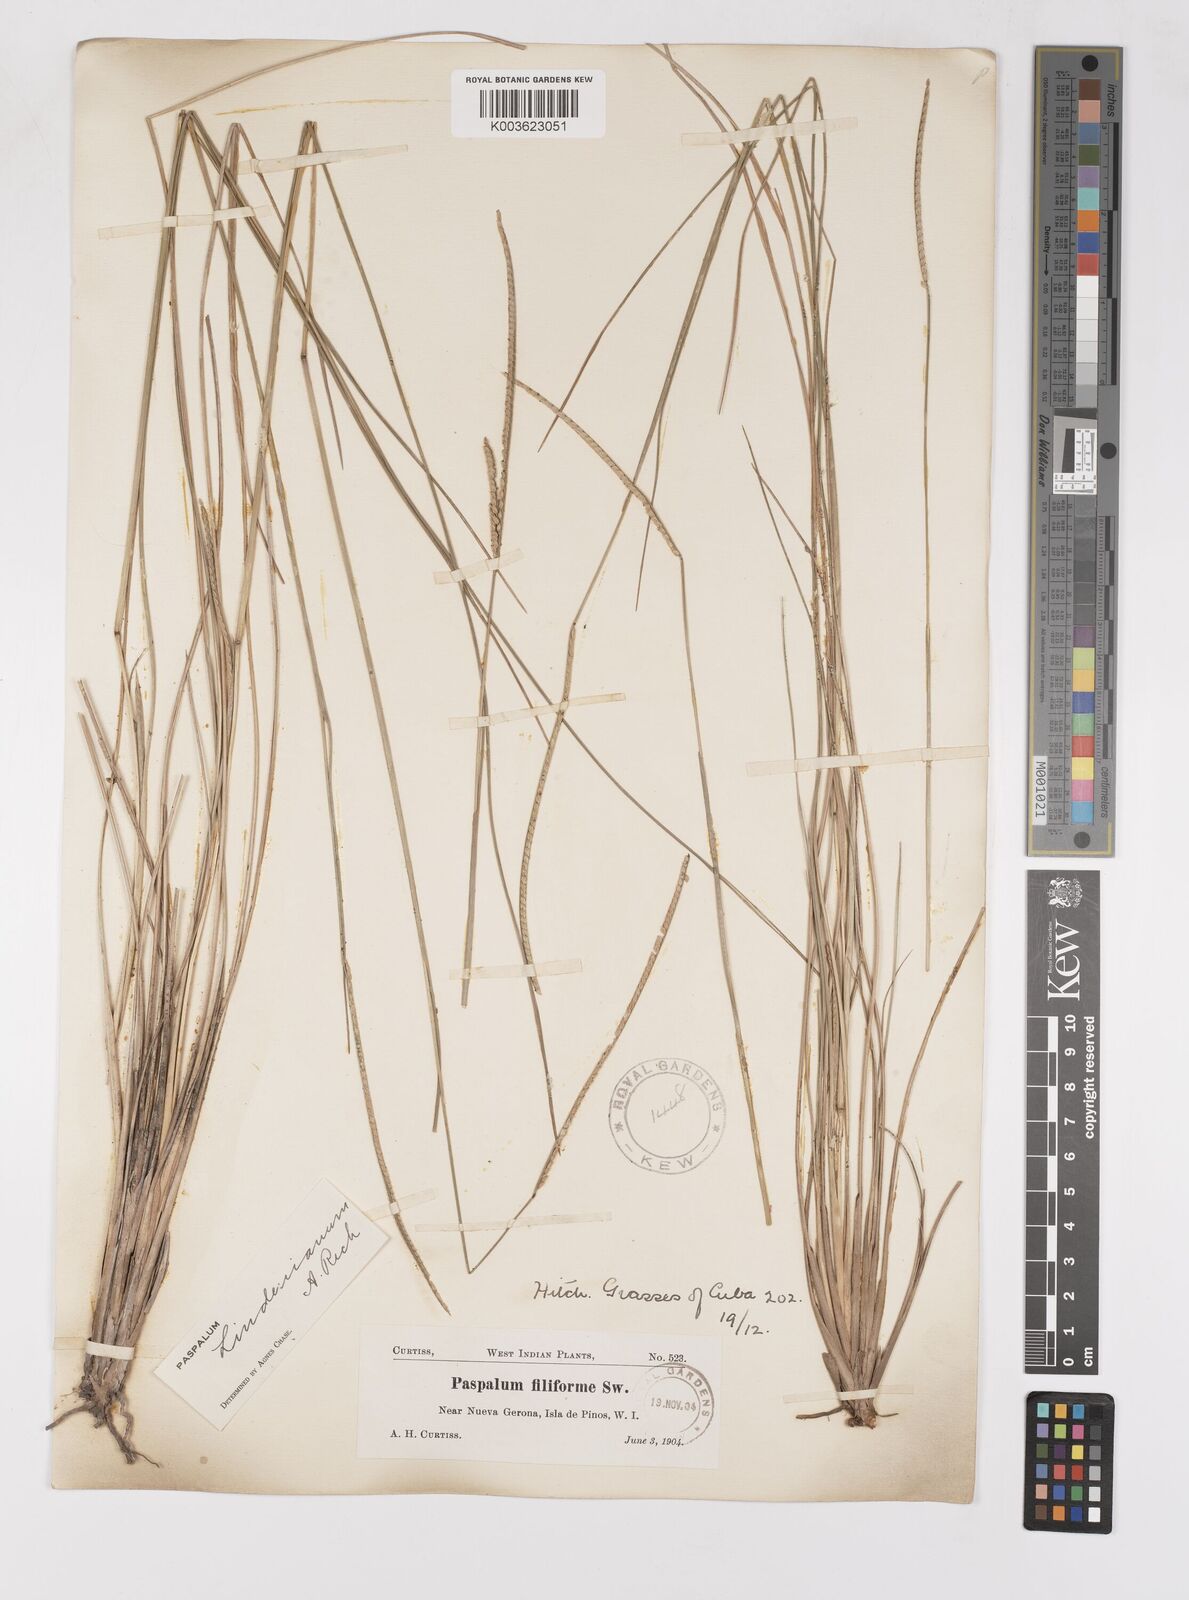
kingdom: Plantae
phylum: Tracheophyta
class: Liliopsida
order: Poales
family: Poaceae
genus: Paspalum
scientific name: Paspalum lindenianum
